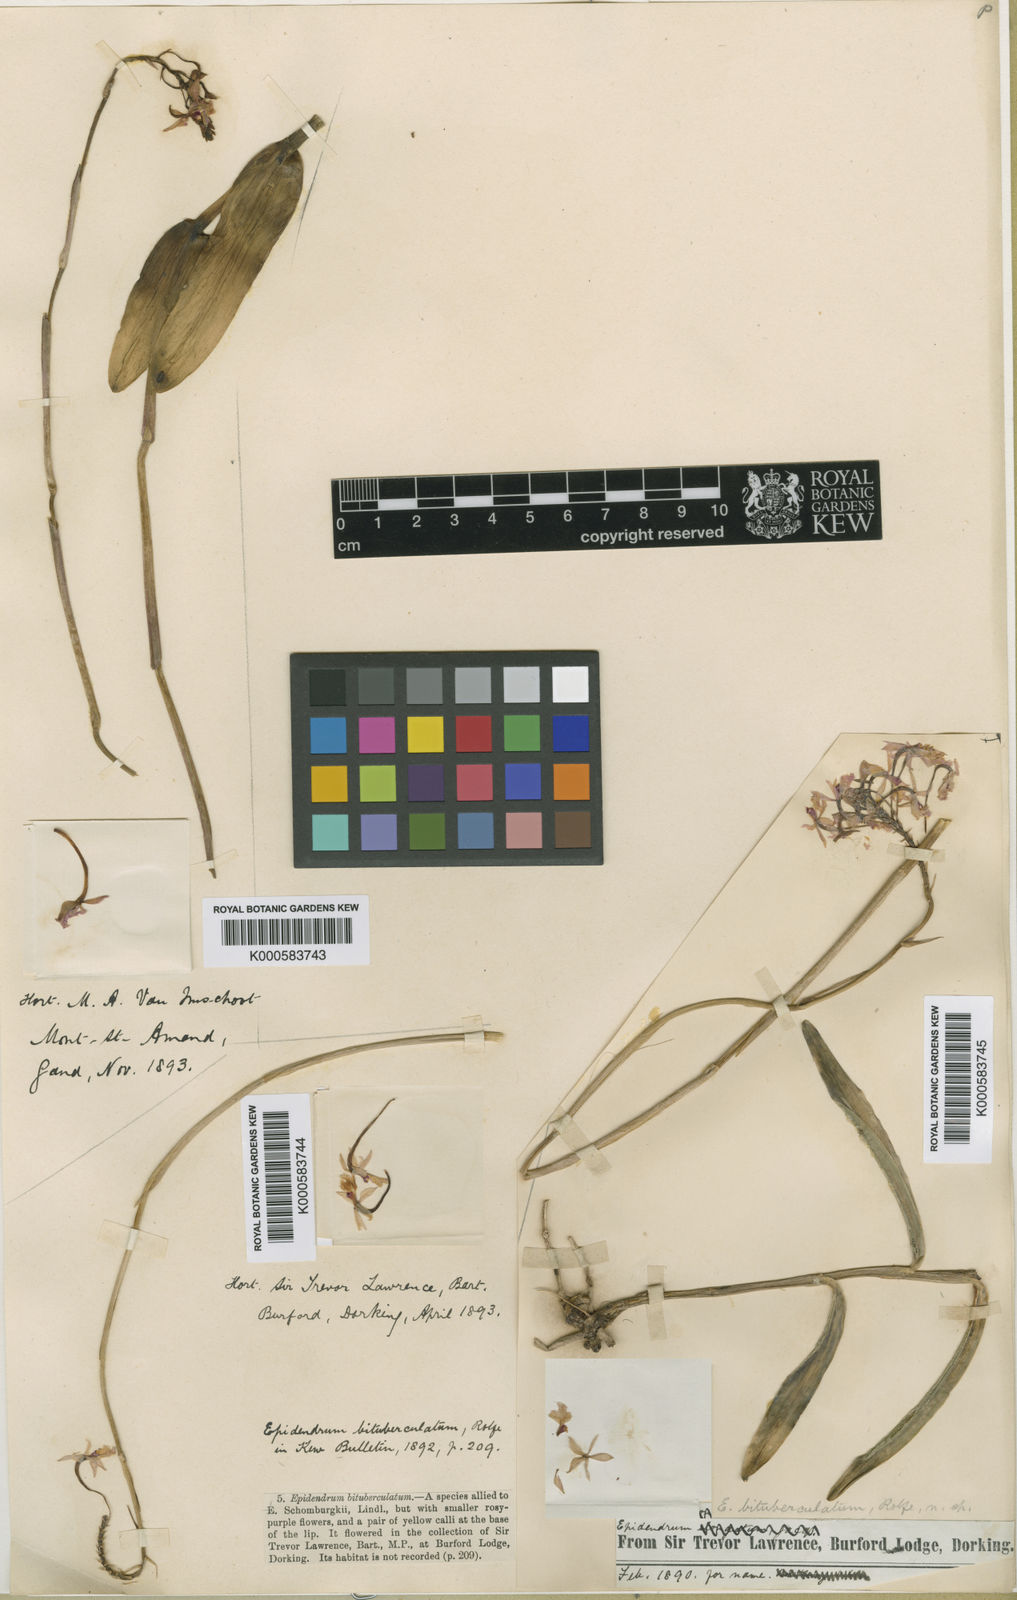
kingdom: Plantae
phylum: Tracheophyta
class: Liliopsida
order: Asparagales
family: Orchidaceae
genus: Epidendrum
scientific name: Epidendrum ibaguense
